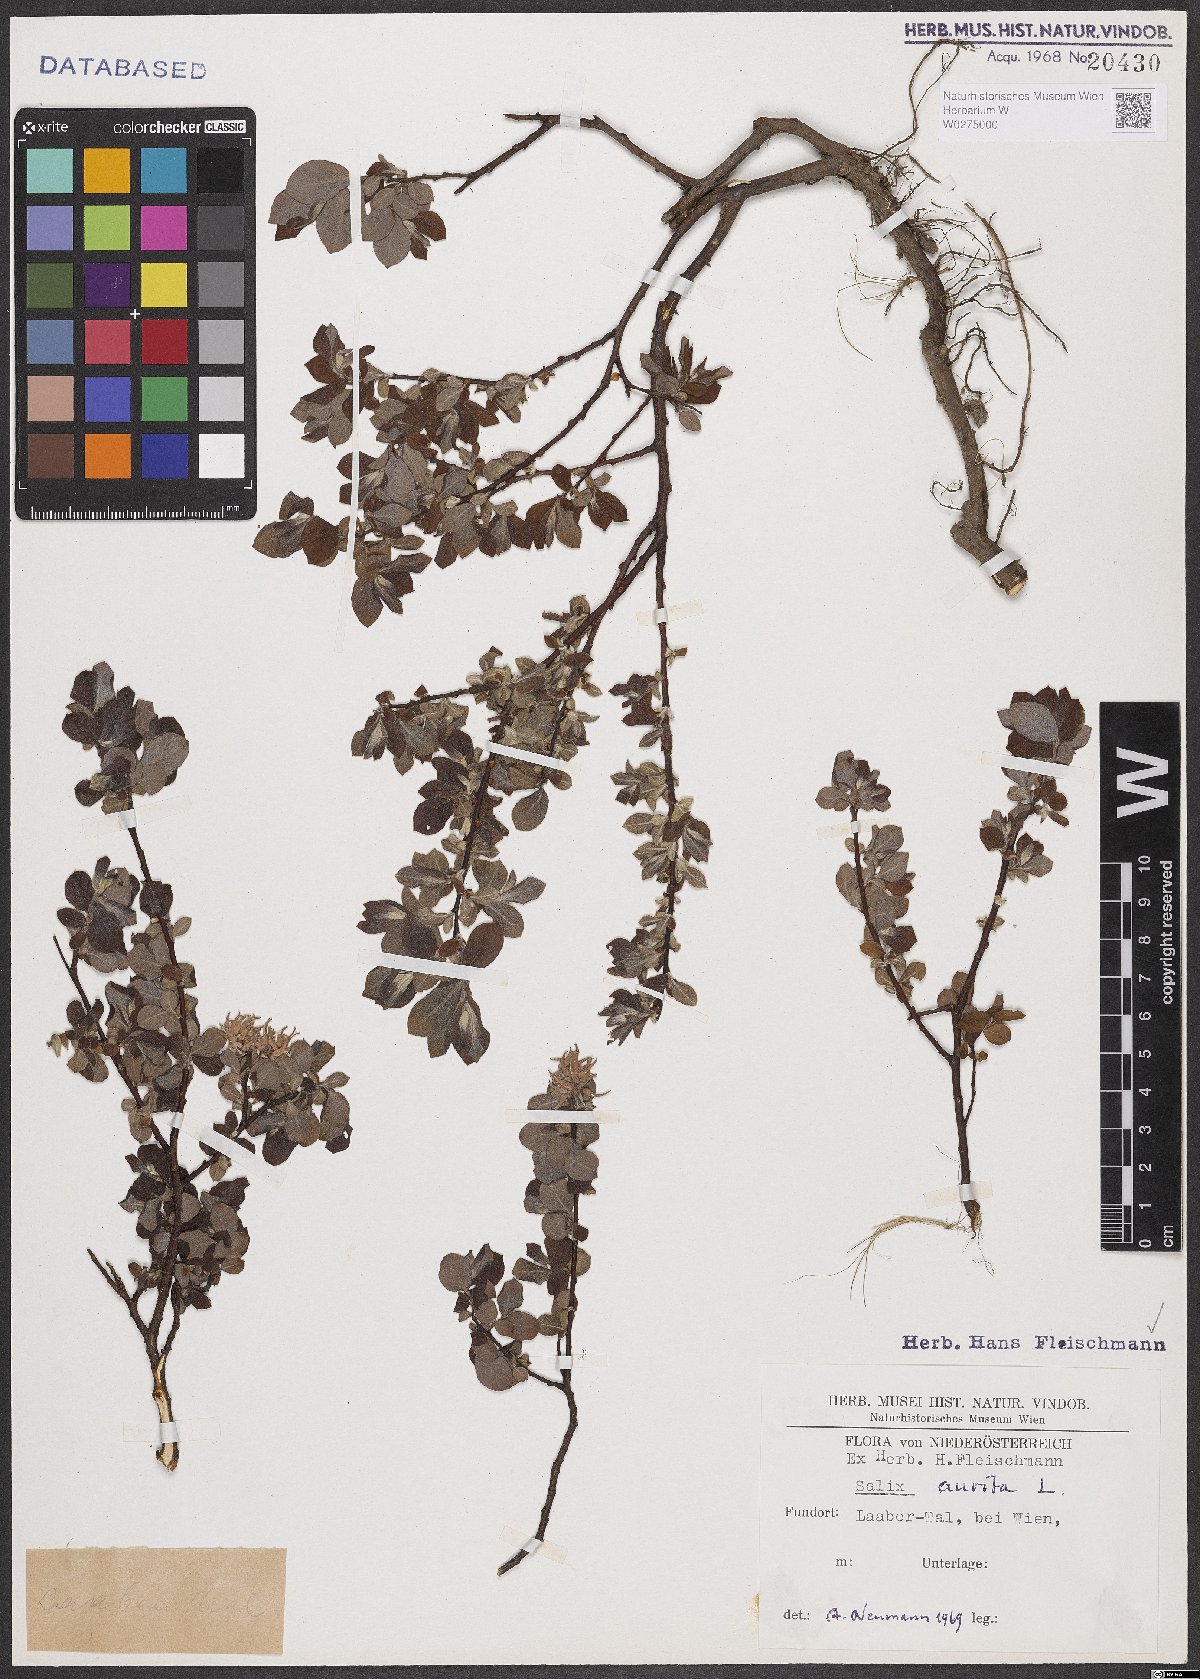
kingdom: Plantae
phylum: Tracheophyta
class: Magnoliopsida
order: Malpighiales
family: Salicaceae
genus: Salix
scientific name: Salix aurita
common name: Eared willow
